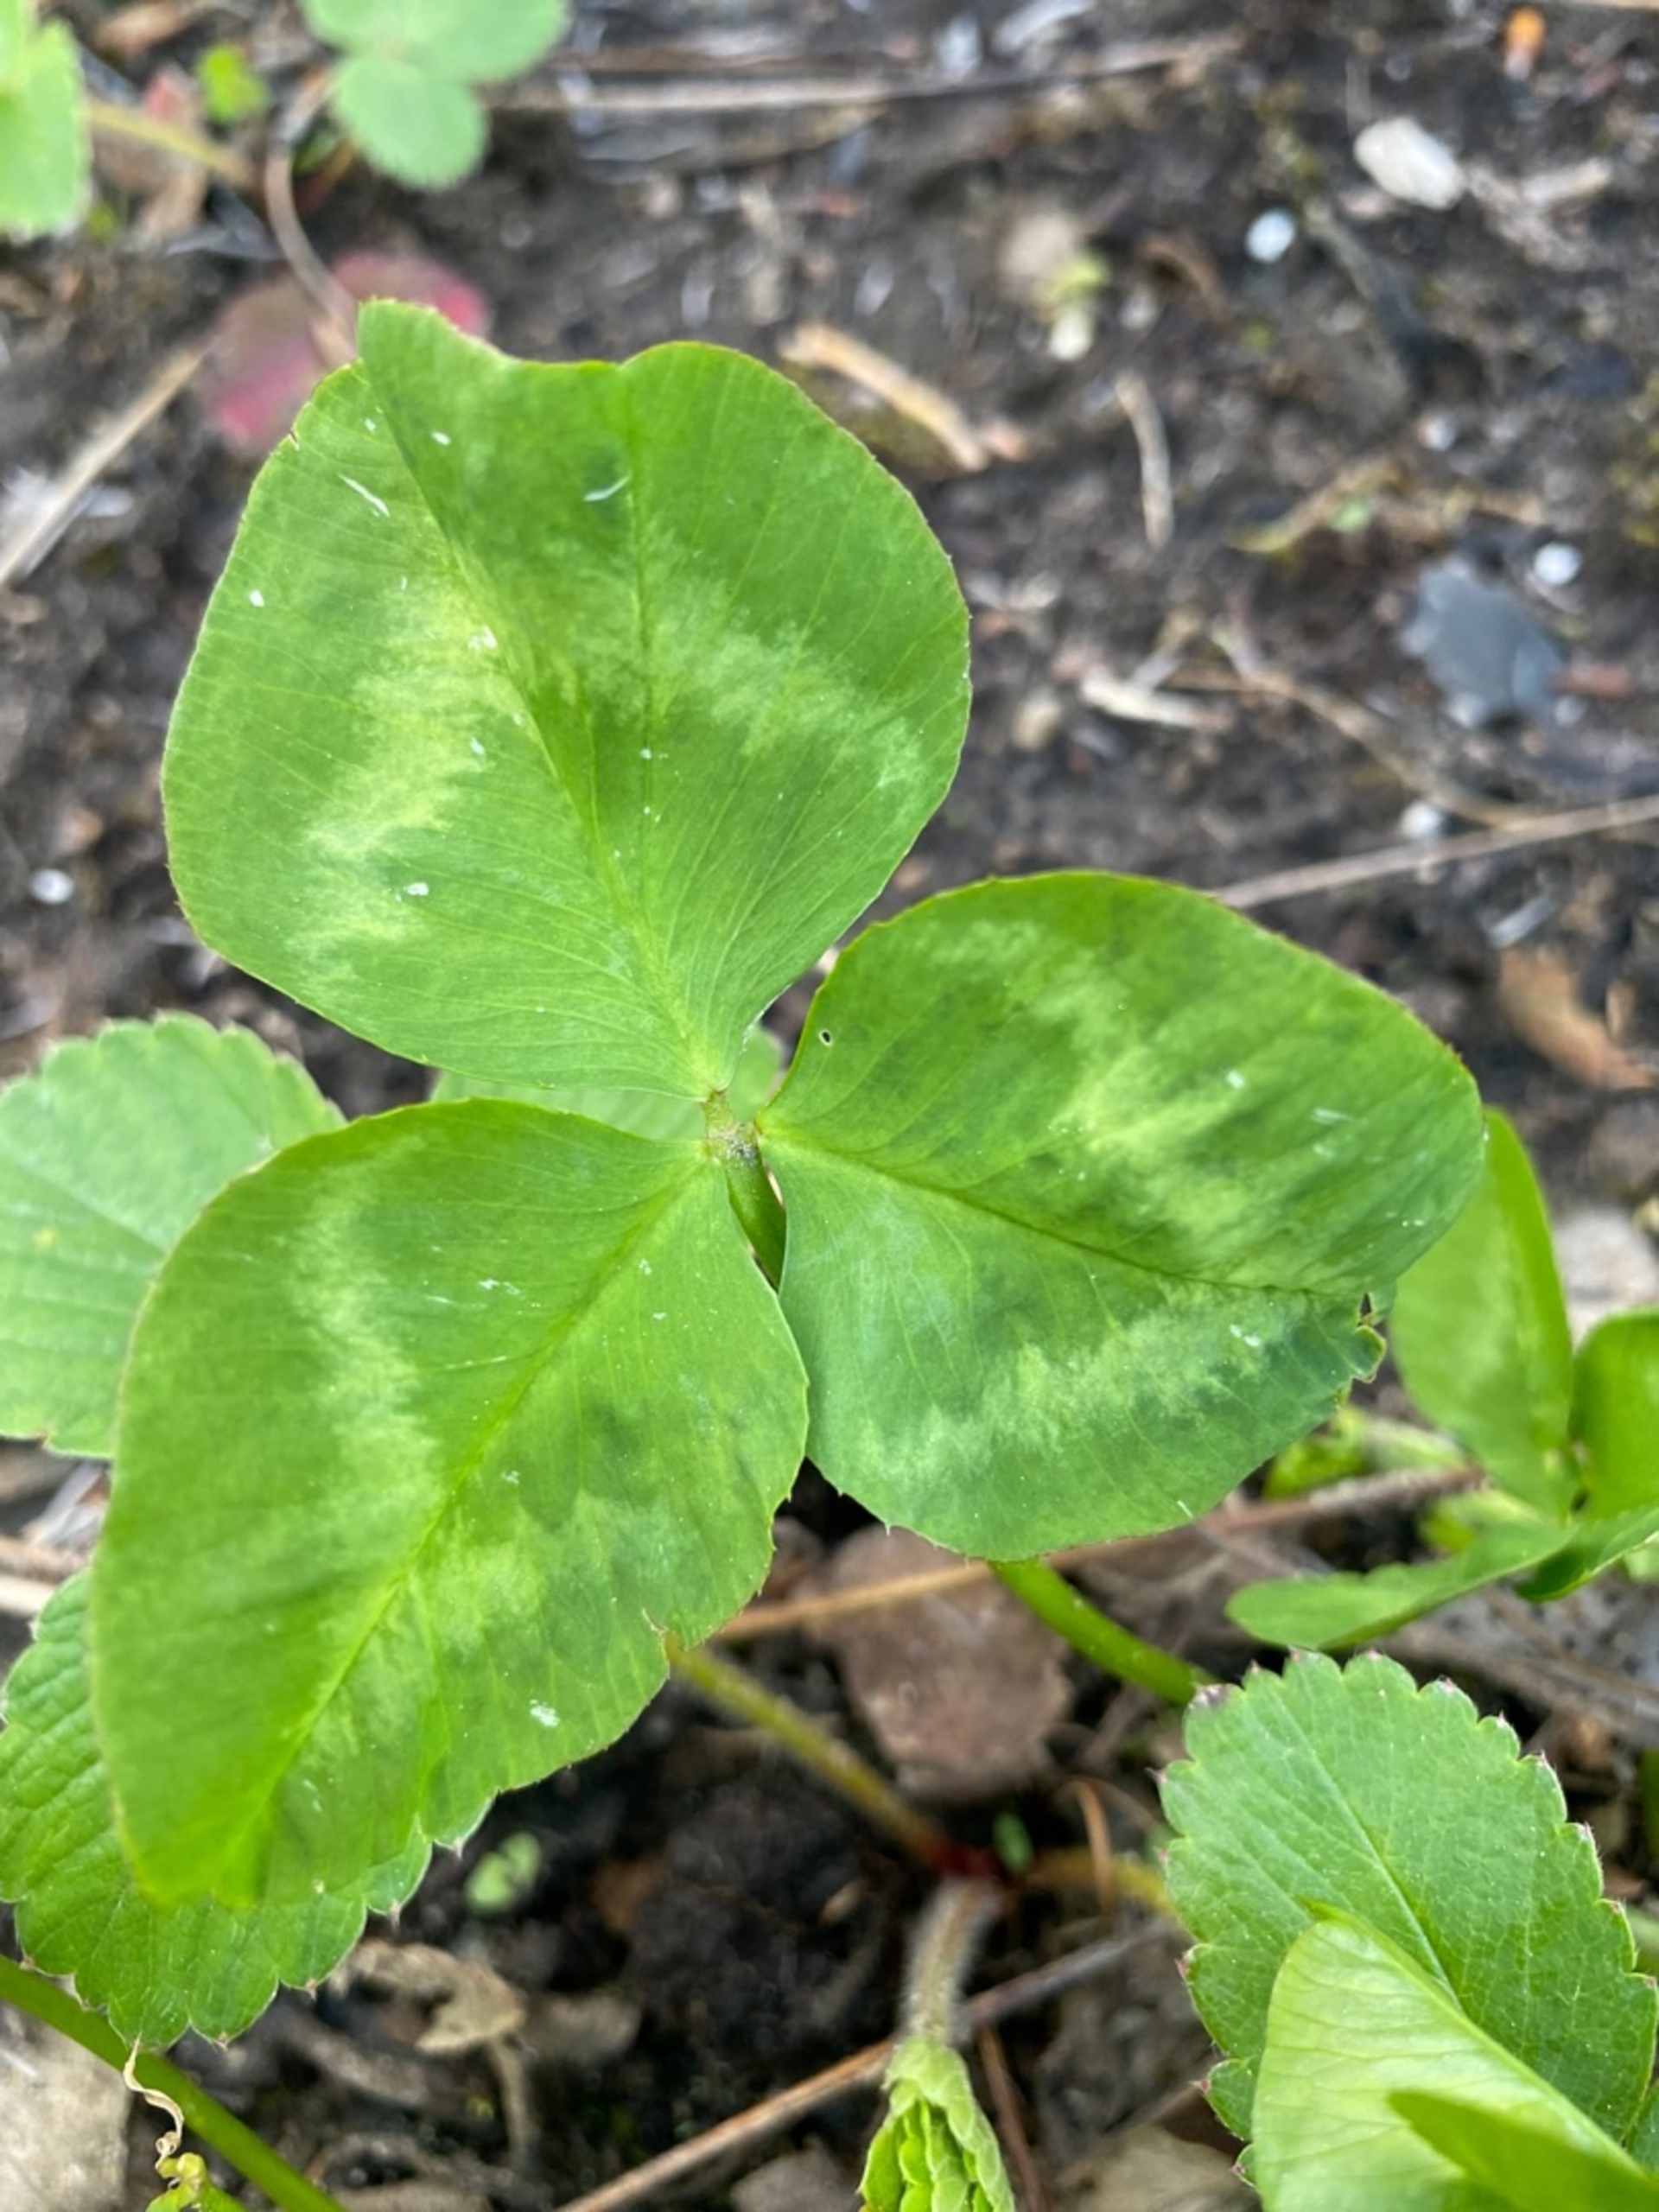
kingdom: Plantae
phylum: Tracheophyta
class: Magnoliopsida
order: Fabales
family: Fabaceae
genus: Trifolium
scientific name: Trifolium repens
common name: Hvid-kløver
